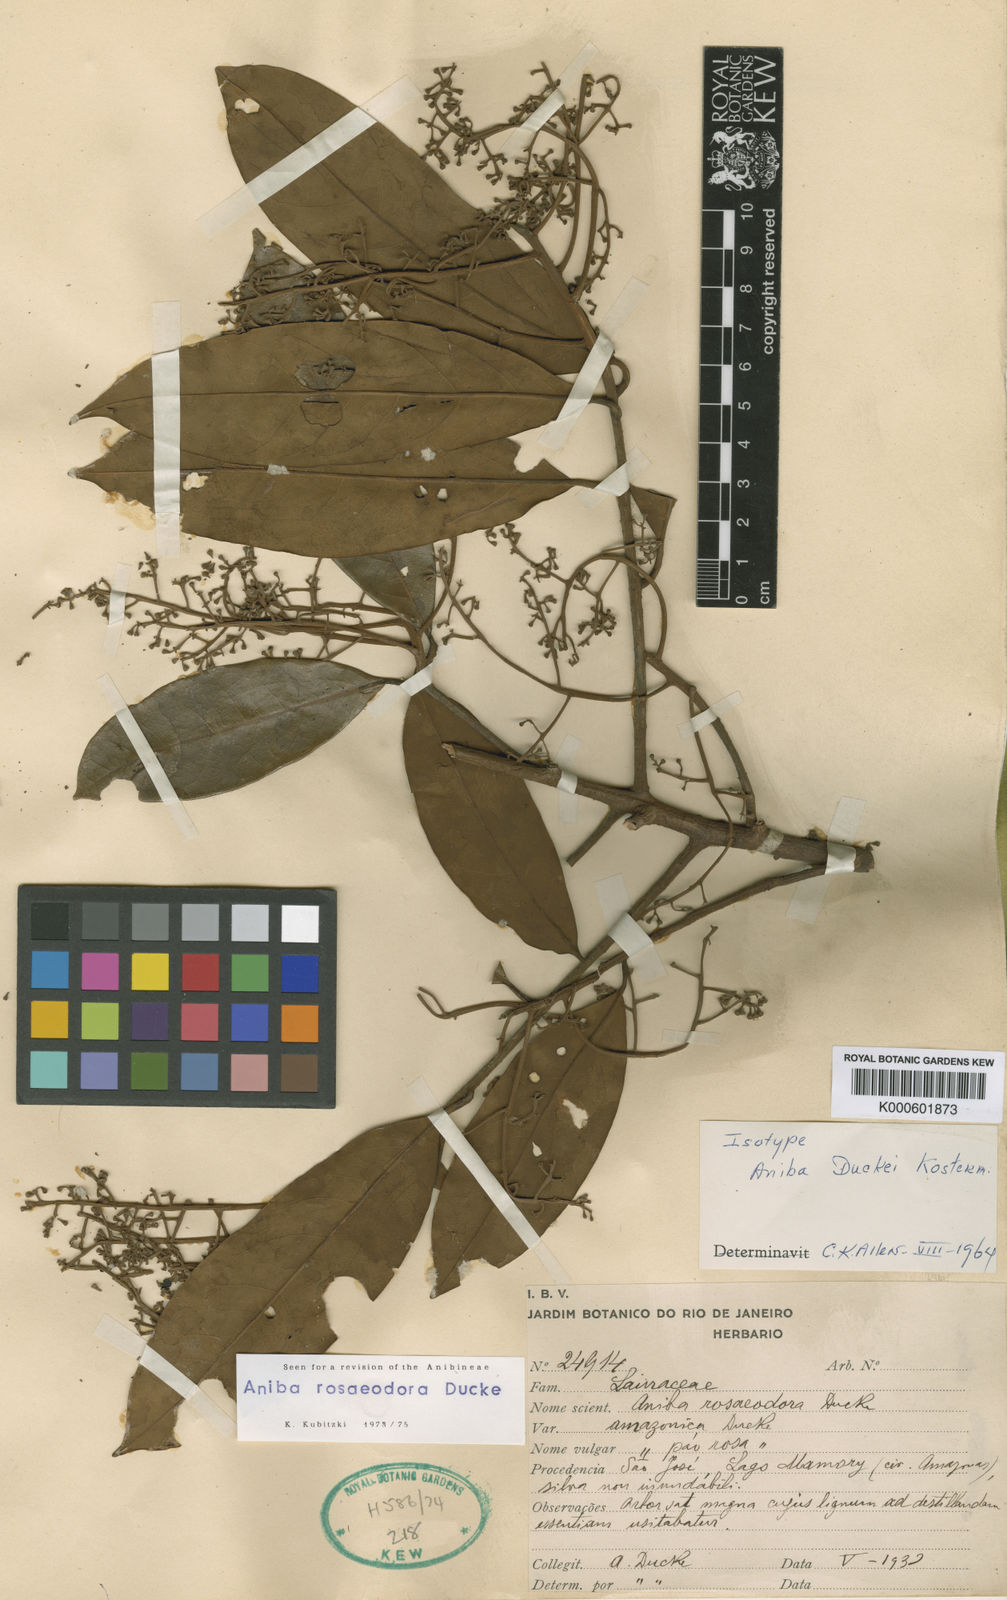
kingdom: Plantae
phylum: Tracheophyta
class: Magnoliopsida
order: Laurales
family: Lauraceae
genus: Aniba
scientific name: Aniba
